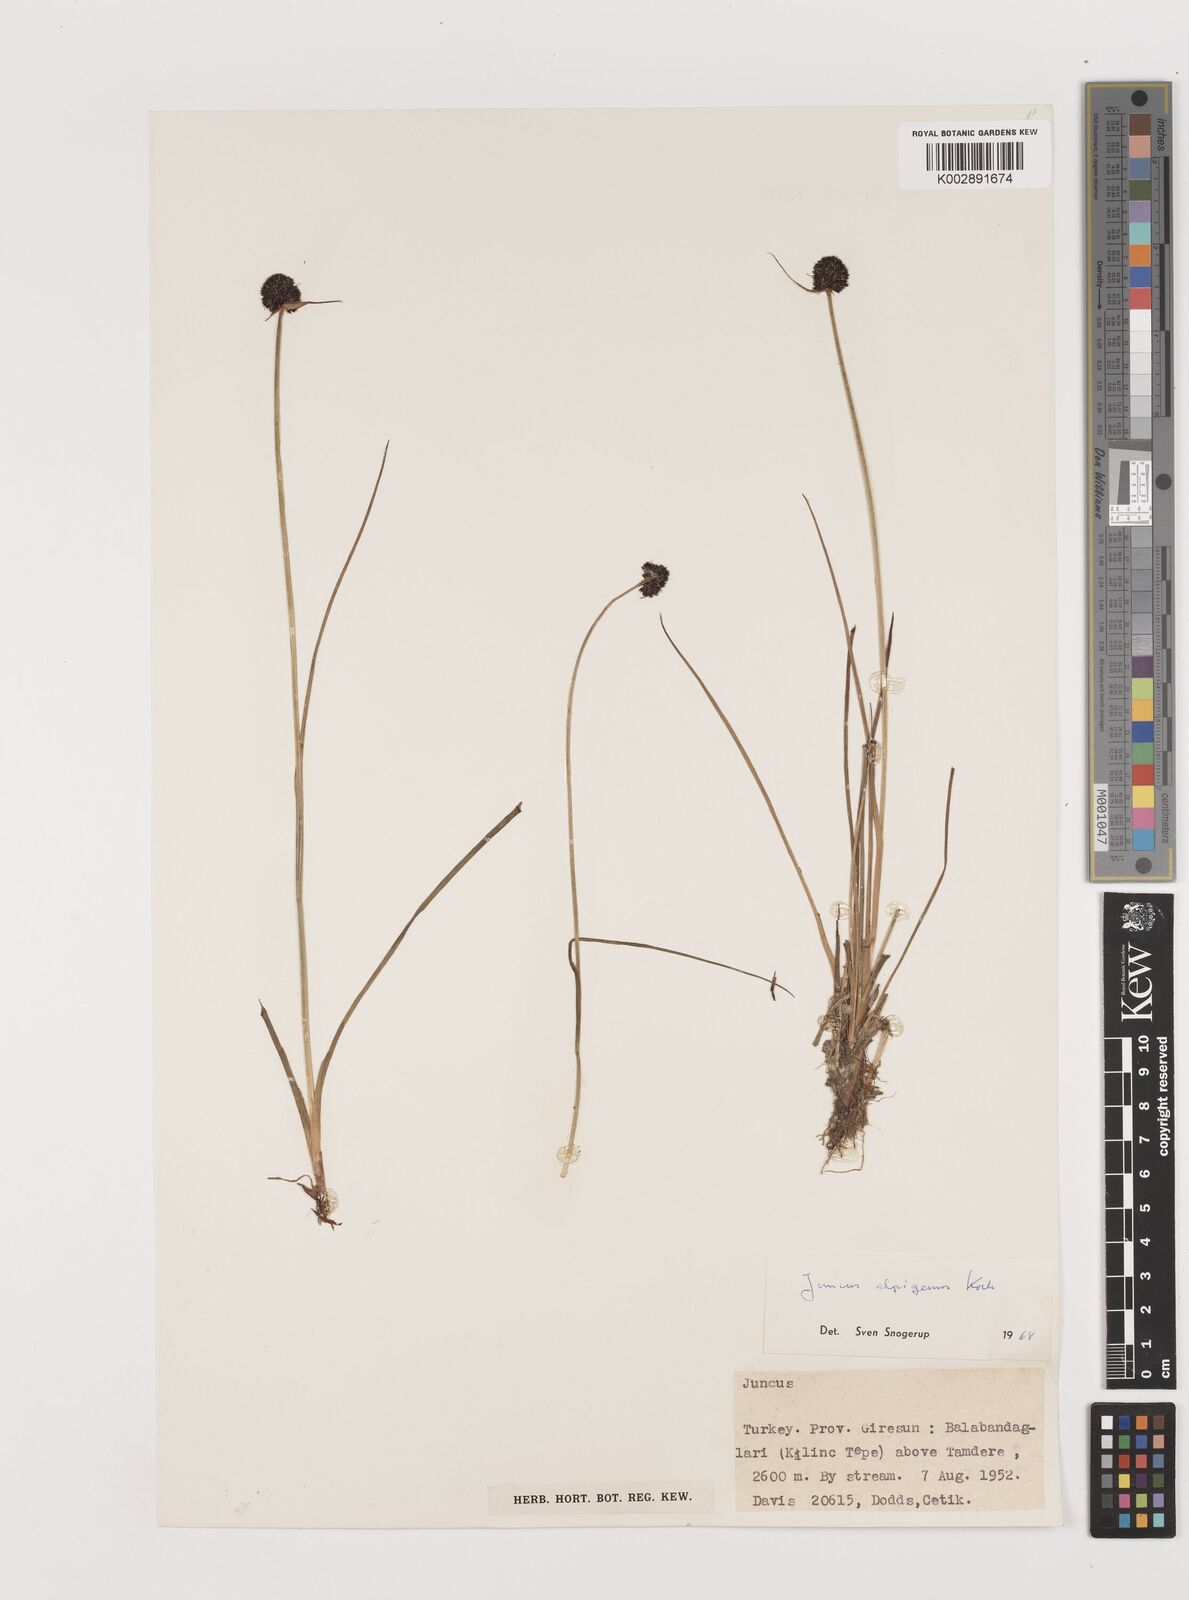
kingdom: Plantae
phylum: Tracheophyta
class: Liliopsida
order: Poales
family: Juncaceae
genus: Juncus
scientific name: Juncus alpigenus
